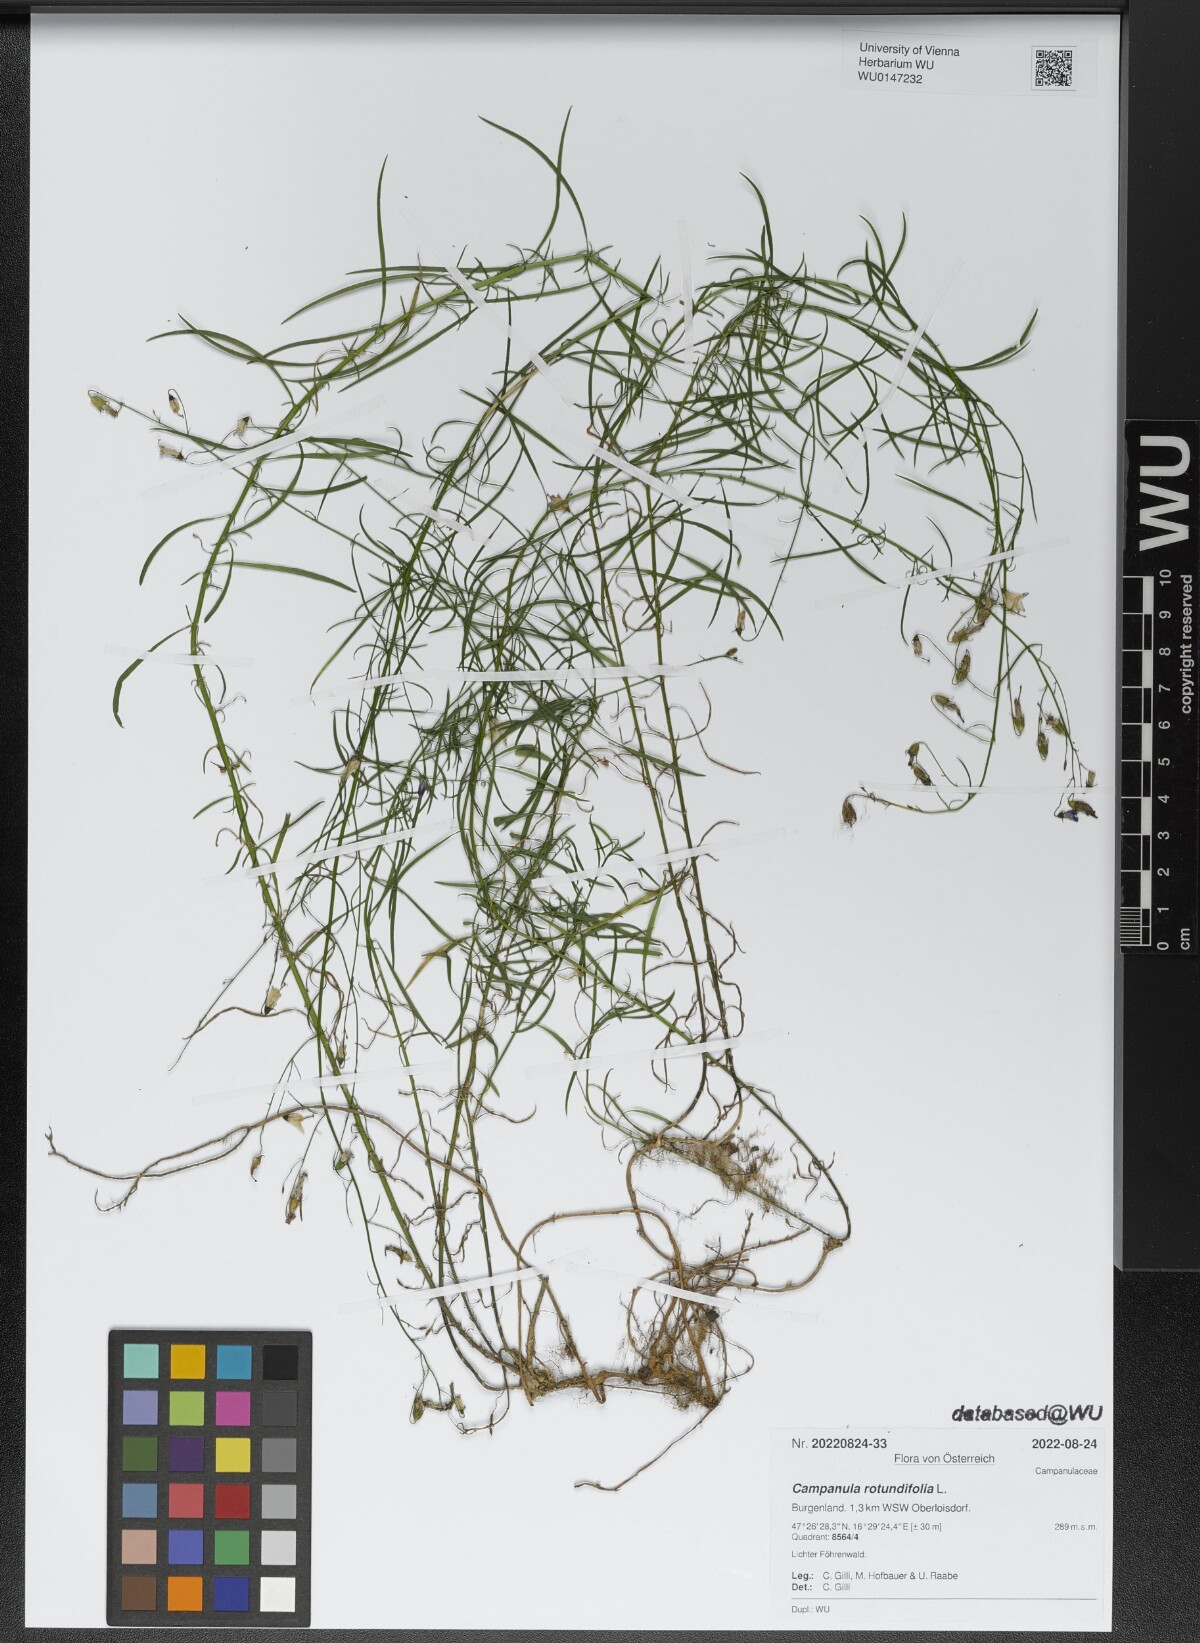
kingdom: Plantae
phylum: Tracheophyta
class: Magnoliopsida
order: Asterales
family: Campanulaceae
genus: Campanula
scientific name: Campanula rotundifolia
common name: Harebell
